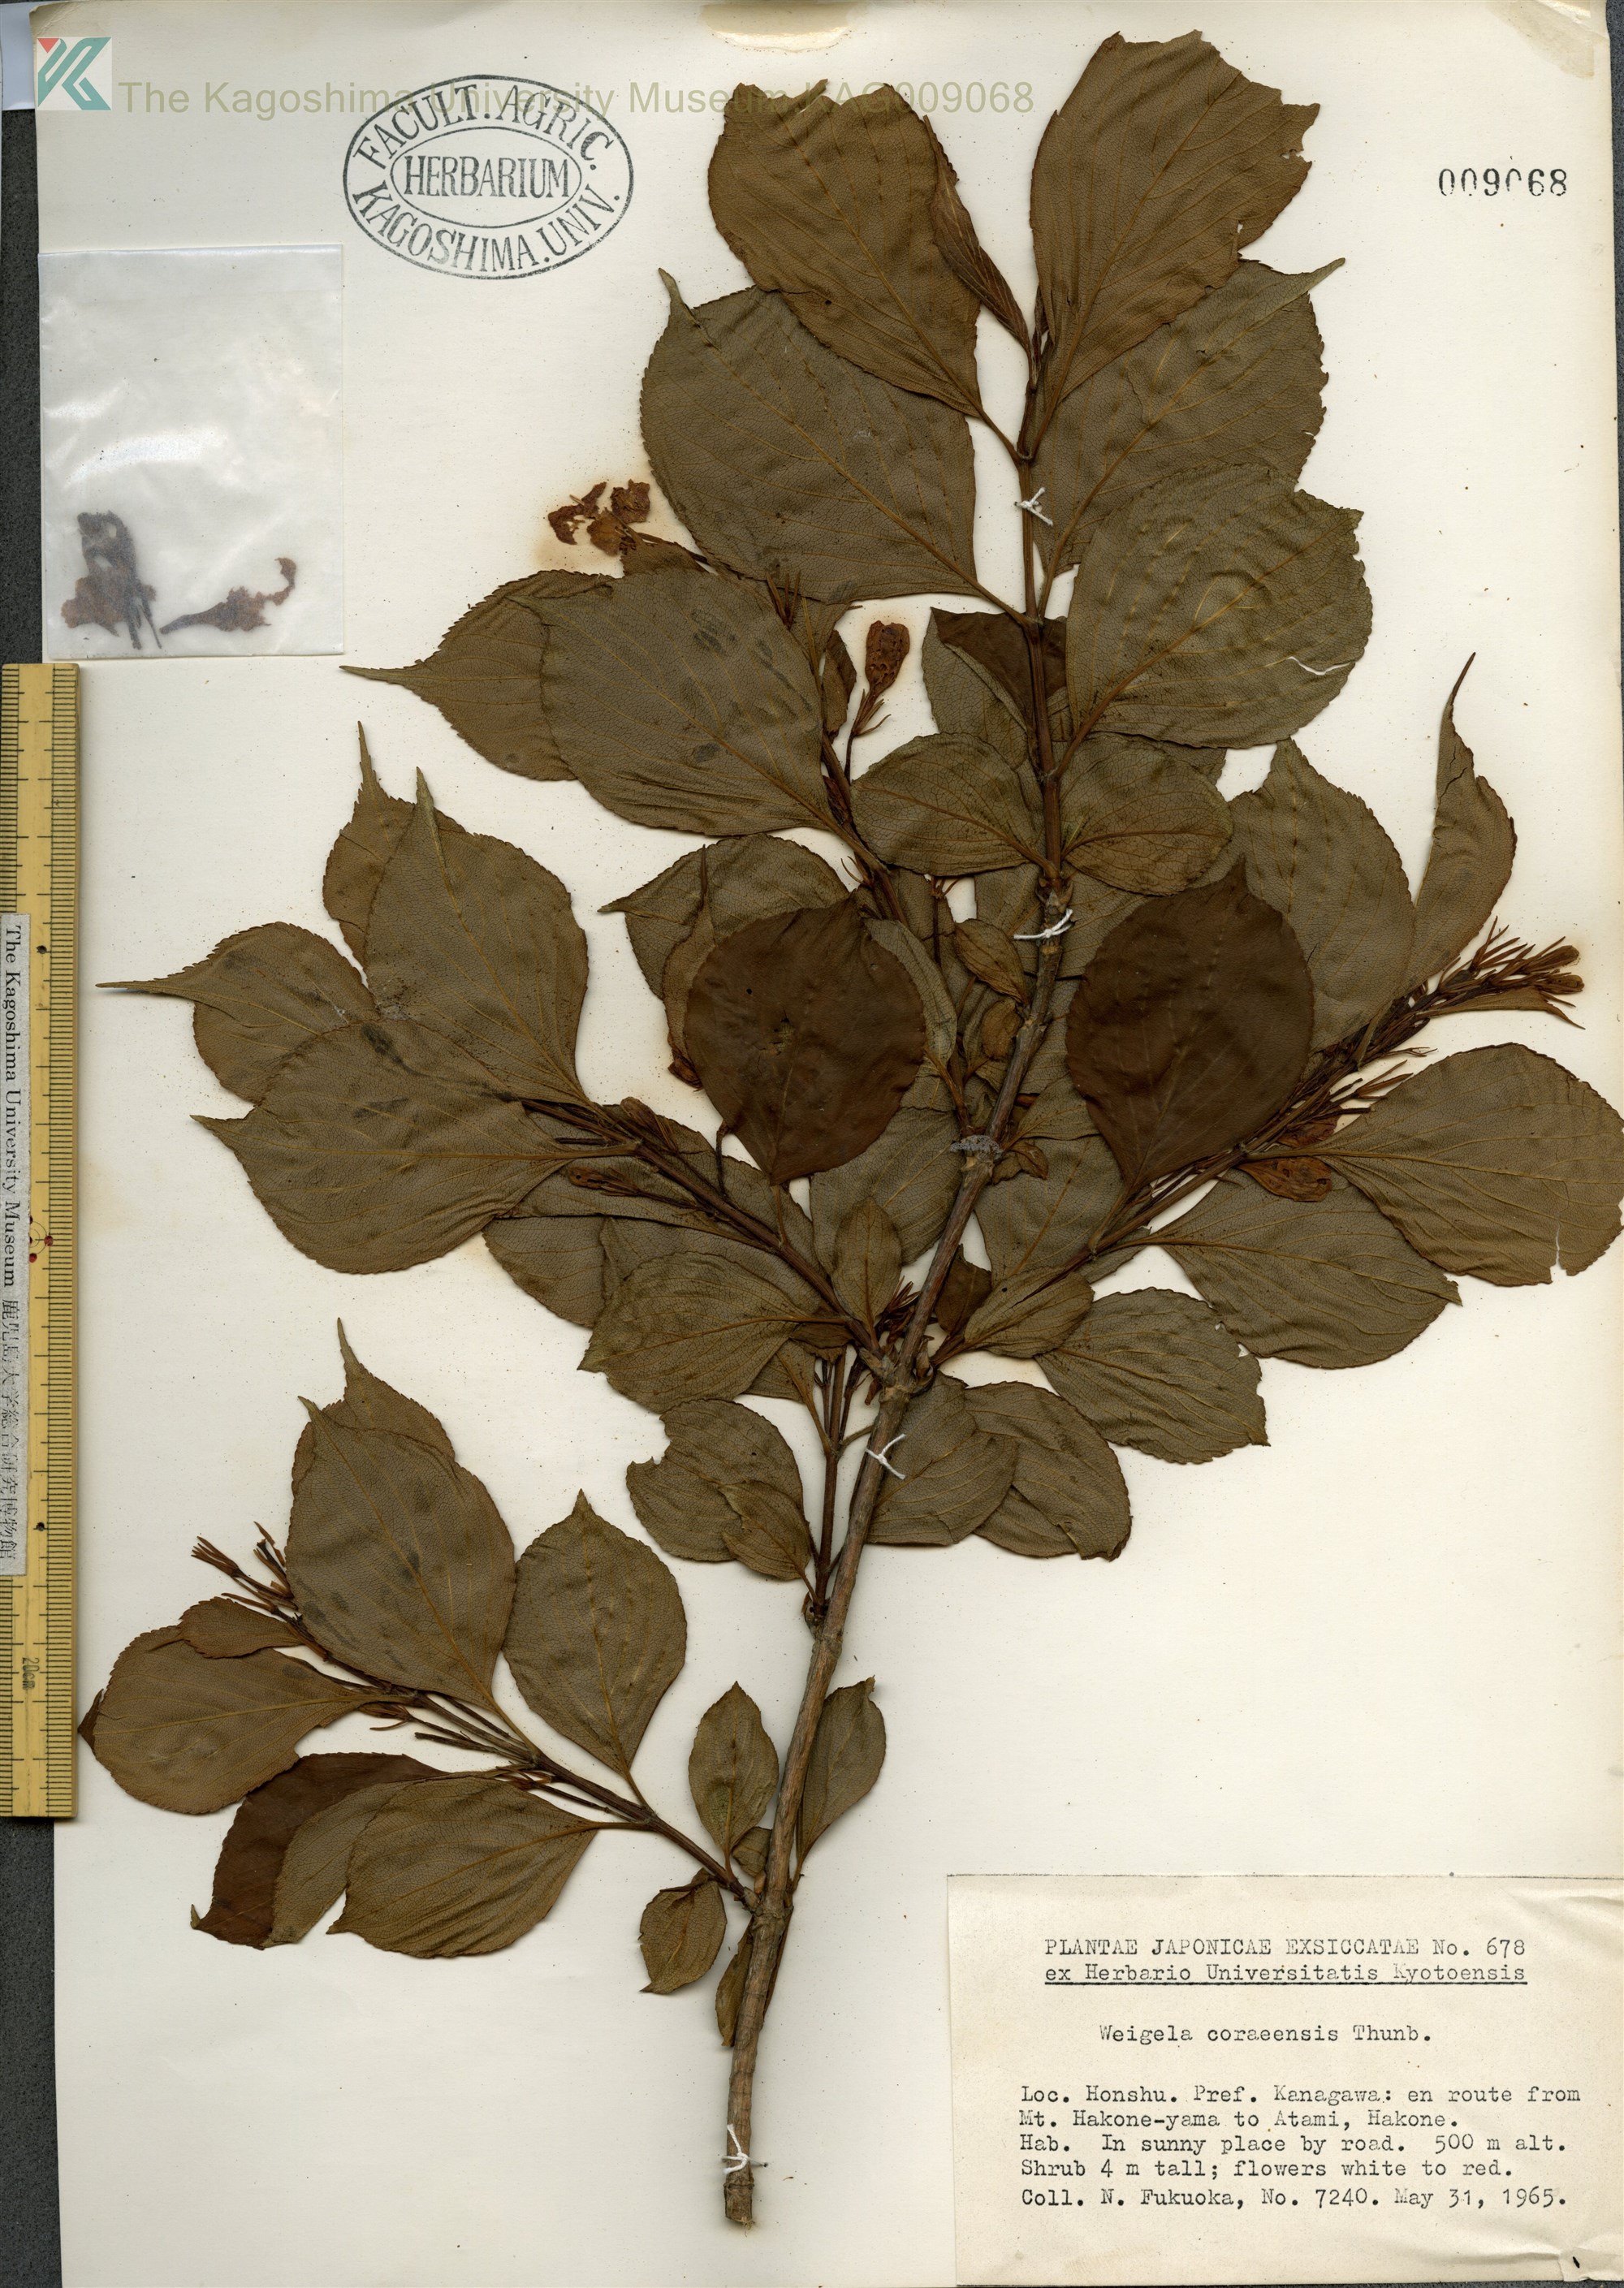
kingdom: Plantae
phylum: Tracheophyta
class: Magnoliopsida
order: Dipsacales
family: Caprifoliaceae
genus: Weigela
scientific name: Weigela
